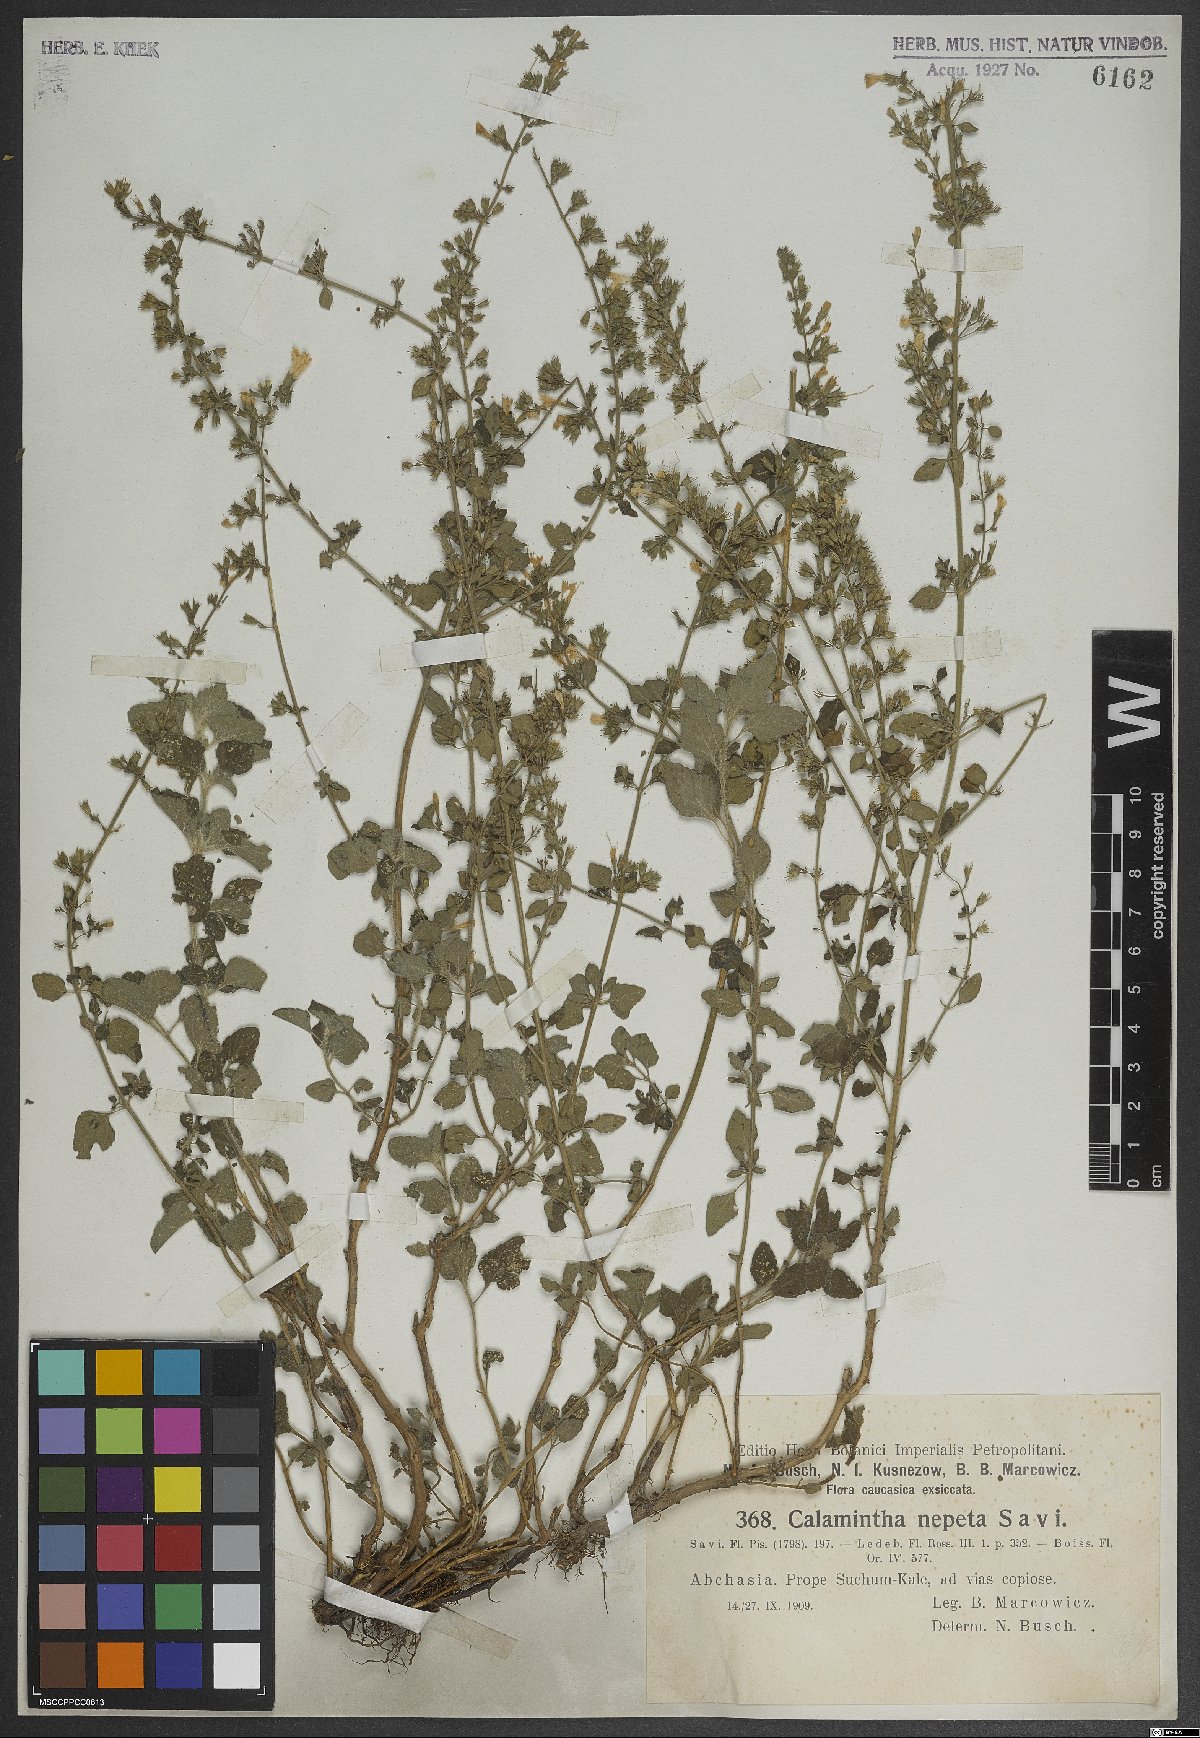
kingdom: Plantae
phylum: Tracheophyta
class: Magnoliopsida
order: Lamiales
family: Lamiaceae
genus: Clinopodium
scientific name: Clinopodium nepeta
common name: Lesser calamint
